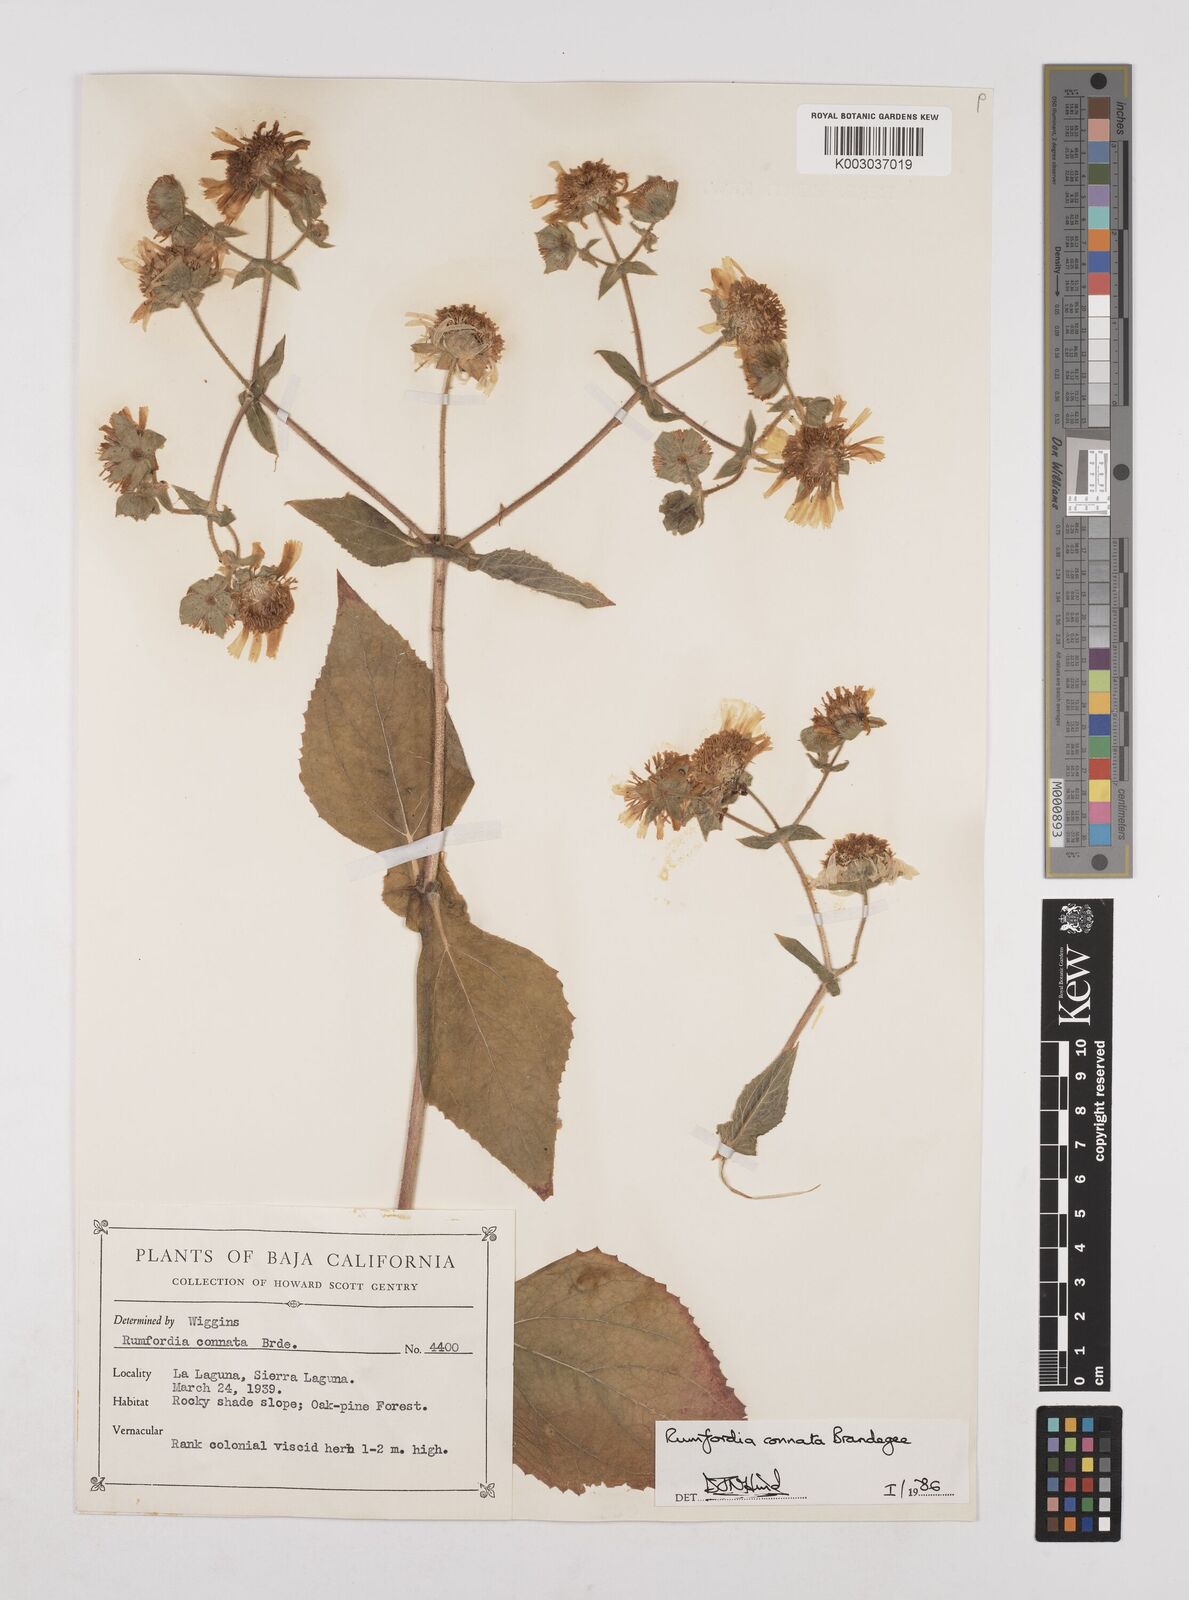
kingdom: Plantae
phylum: Tracheophyta
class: Magnoliopsida
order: Asterales
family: Asteraceae
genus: Rumfordia
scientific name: Rumfordia connata
